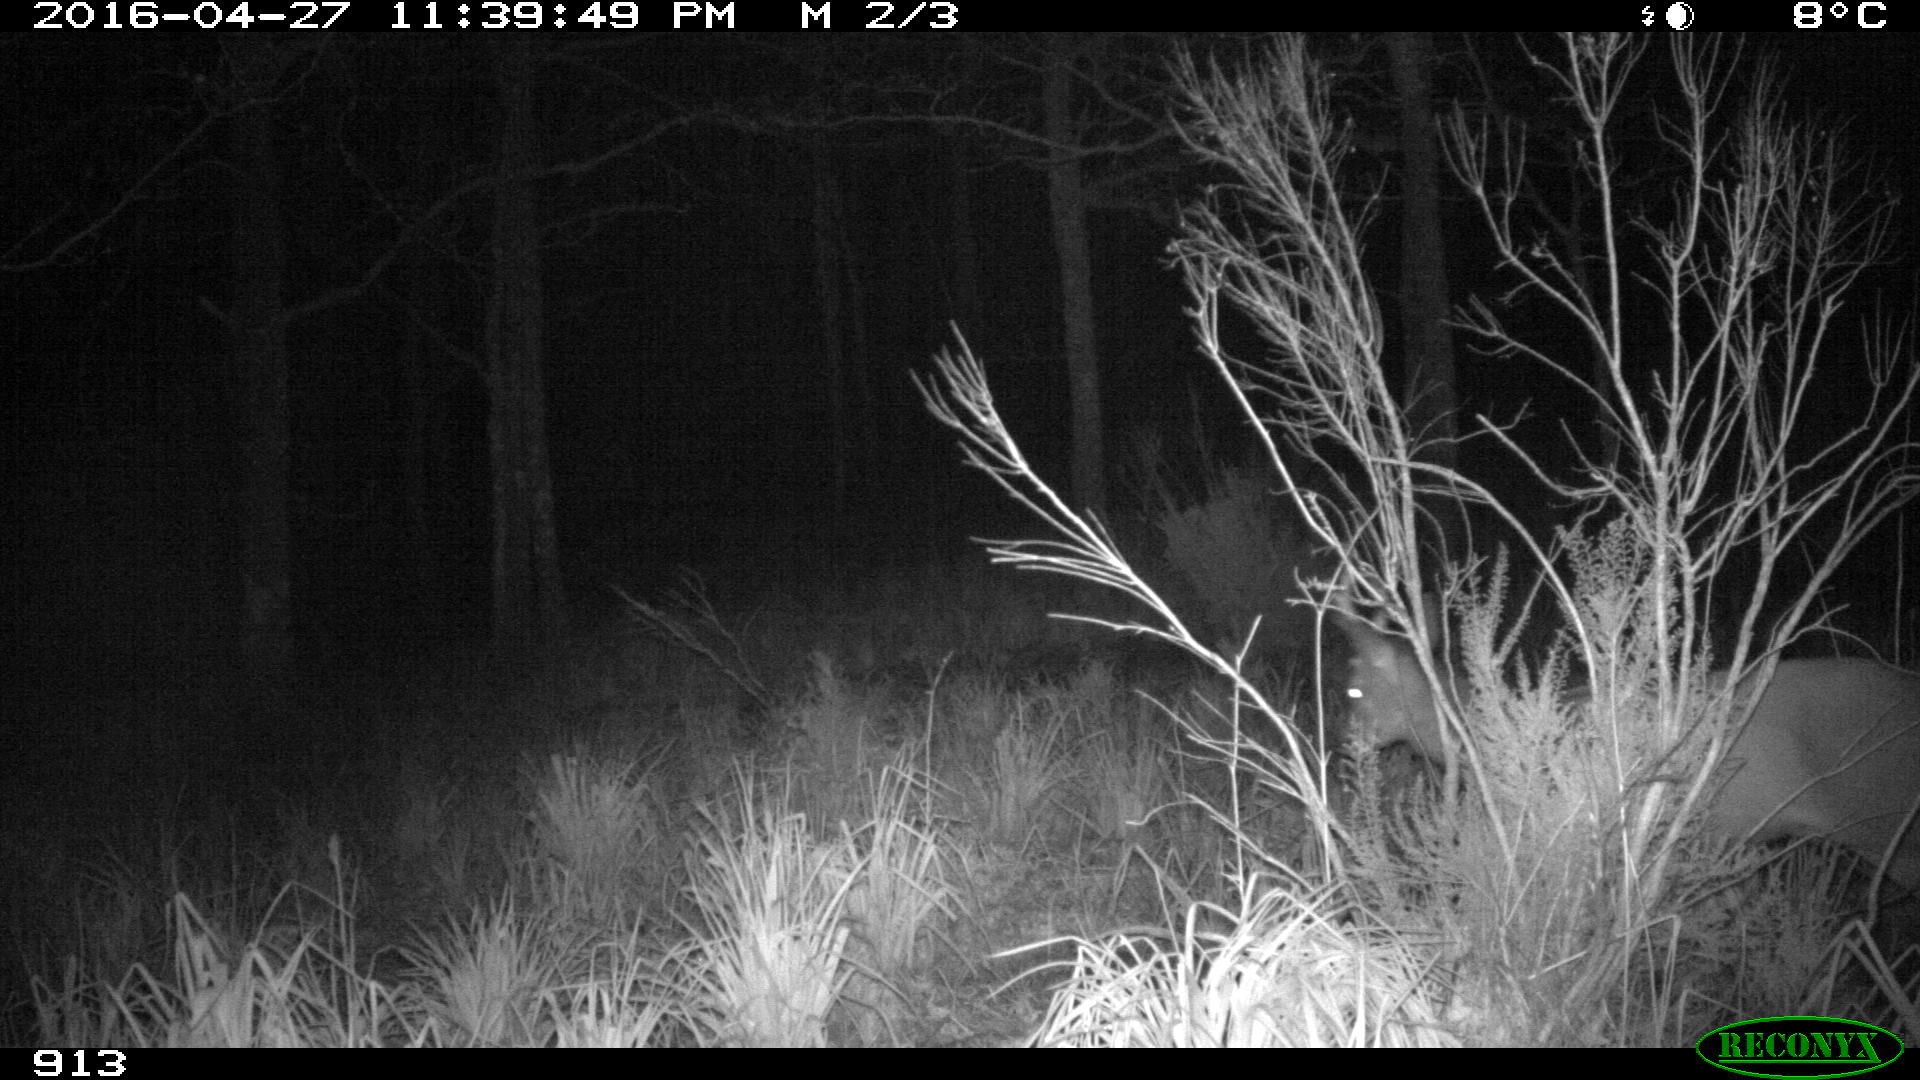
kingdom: Animalia
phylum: Chordata
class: Mammalia
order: Artiodactyla
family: Cervidae
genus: Capreolus
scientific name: Capreolus capreolus
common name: Western roe deer
